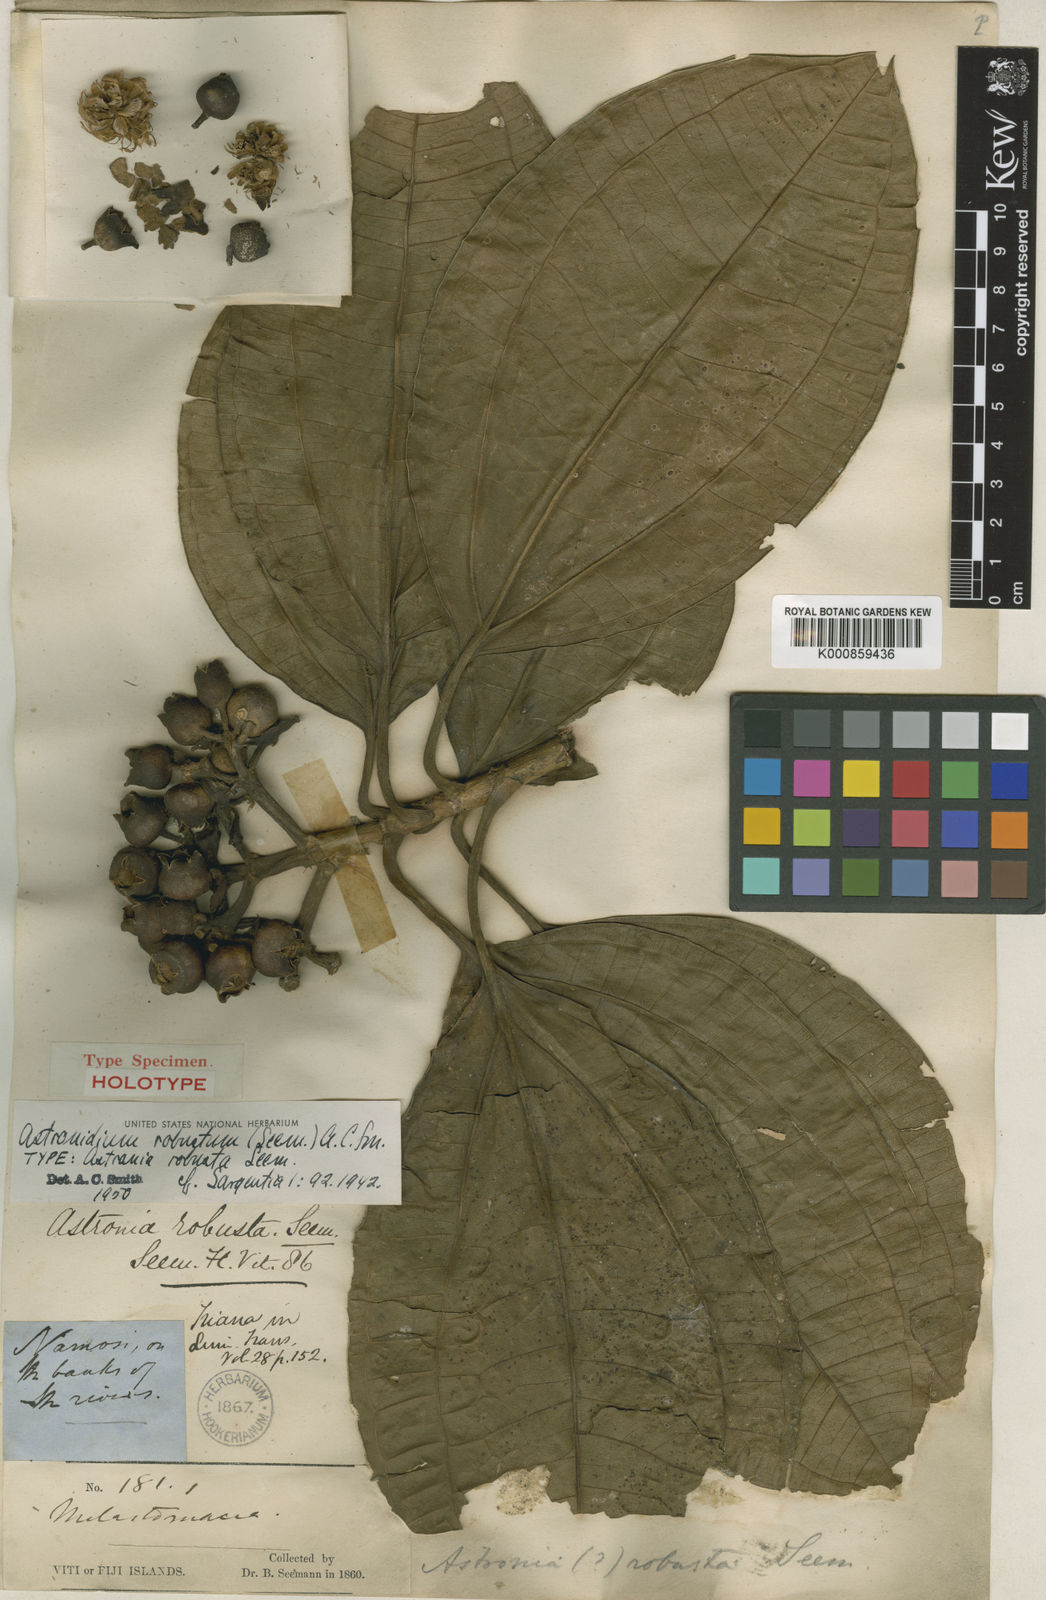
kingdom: Plantae
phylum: Tracheophyta
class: Magnoliopsida
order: Myrtales
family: Melastomataceae
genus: Astronidium
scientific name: Astronidium robustum
